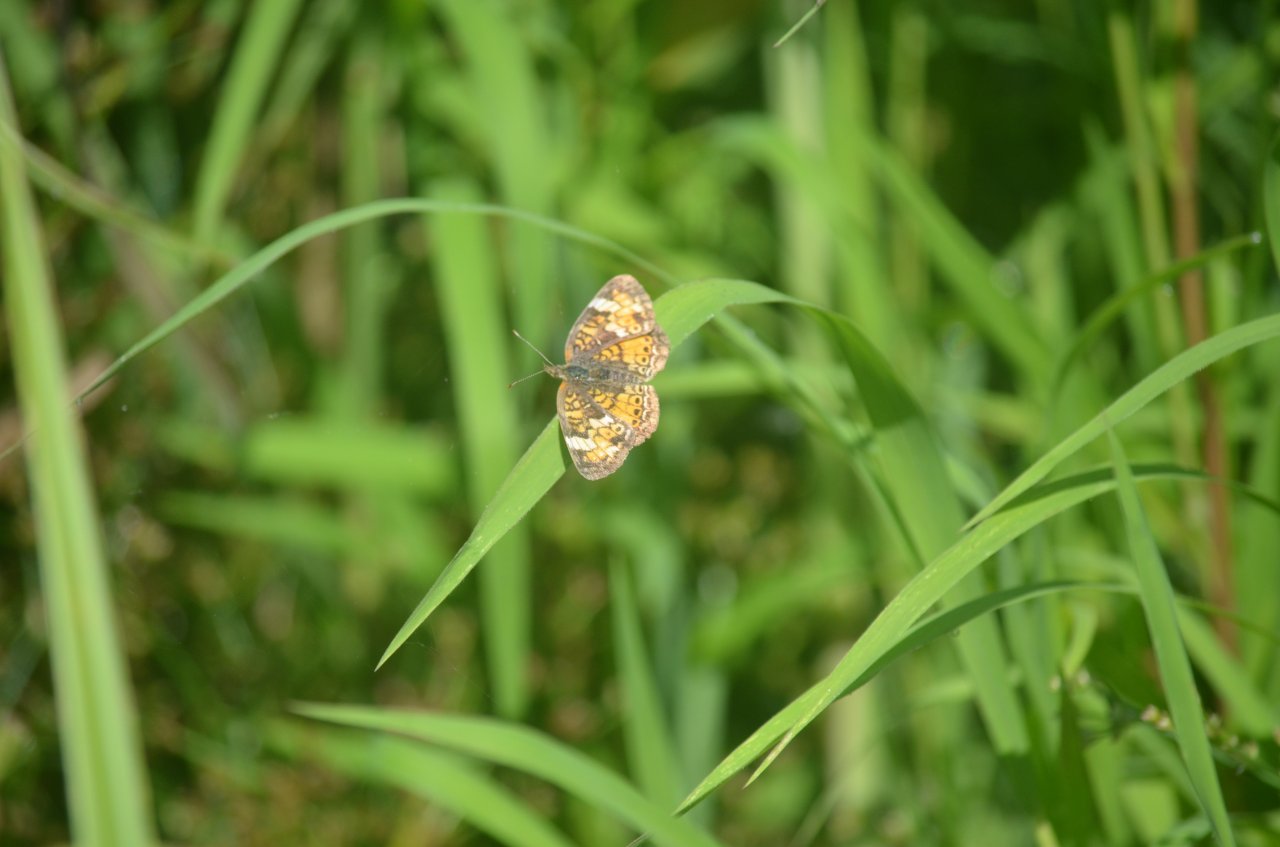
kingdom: Animalia
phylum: Arthropoda
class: Insecta
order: Lepidoptera
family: Nymphalidae
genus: Phyciodes
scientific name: Phyciodes tharos
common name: Northern Crescent
